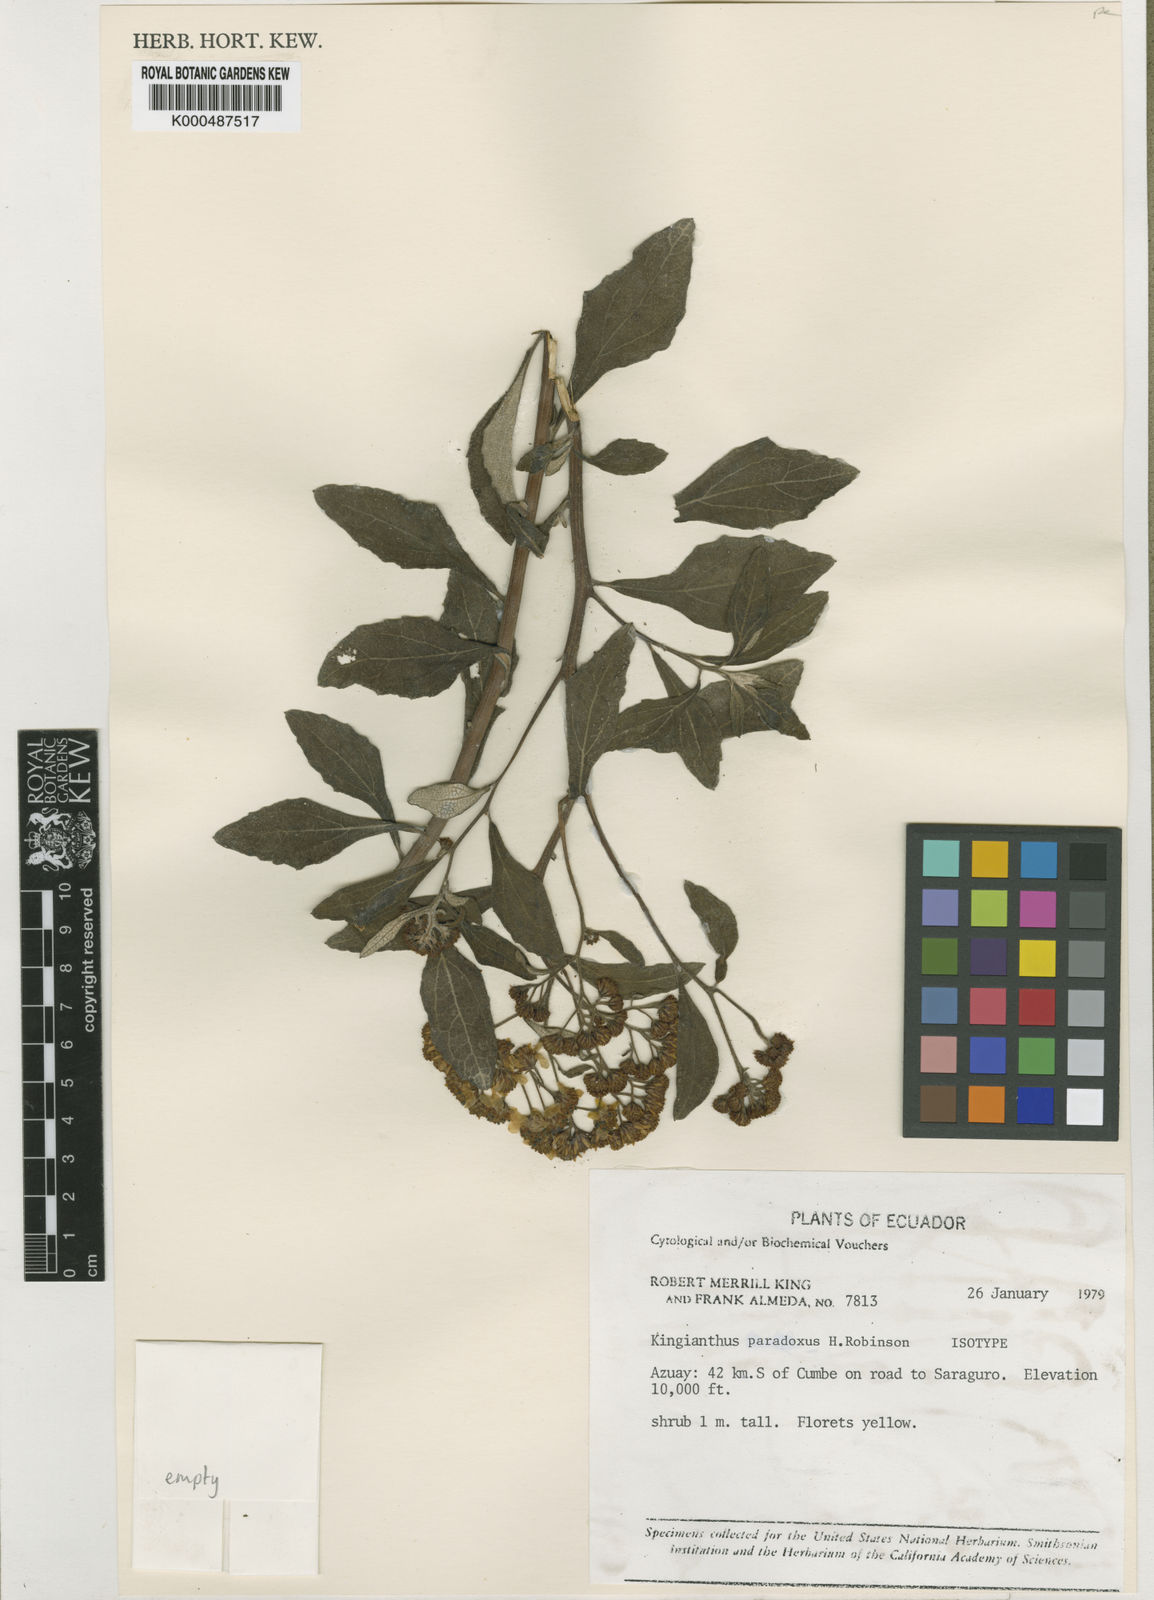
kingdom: Plantae
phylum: Tracheophyta
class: Magnoliopsida
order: Asterales
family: Asteraceae
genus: Kingianthus
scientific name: Kingianthus paradoxus
